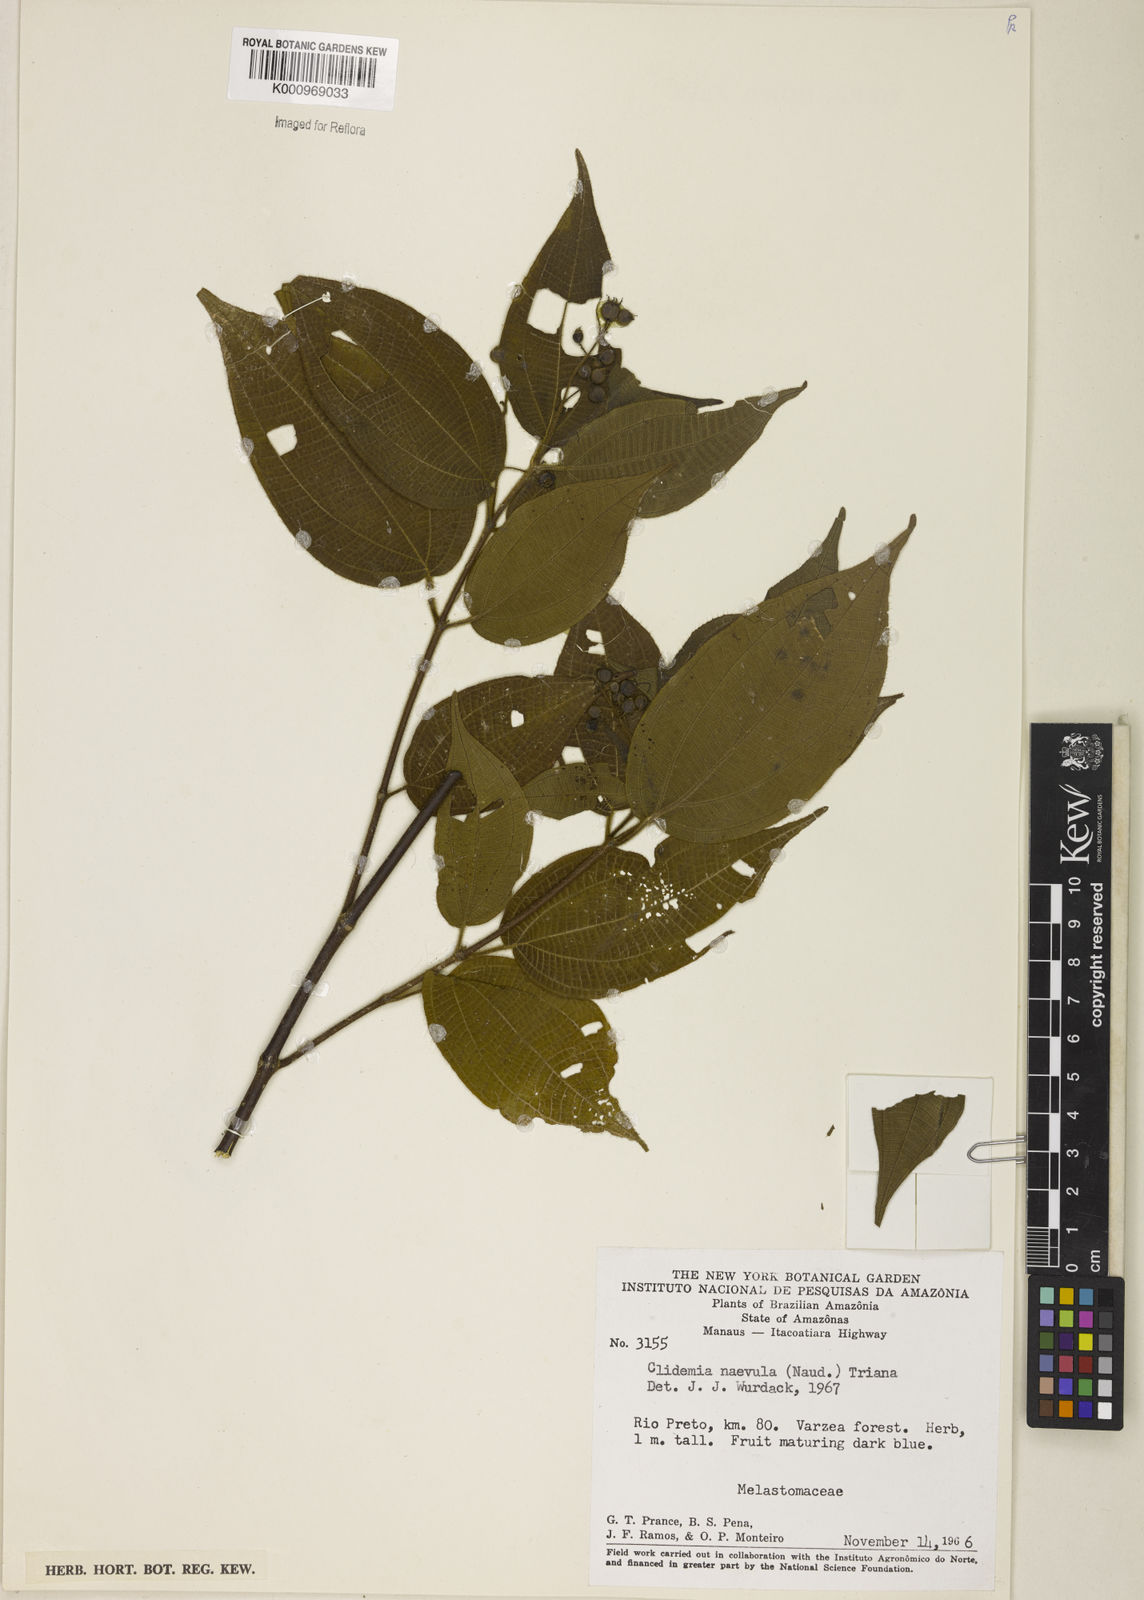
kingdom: Plantae
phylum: Tracheophyta
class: Magnoliopsida
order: Myrtales
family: Melastomataceae
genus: Miconia
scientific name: Miconia heteroclita
